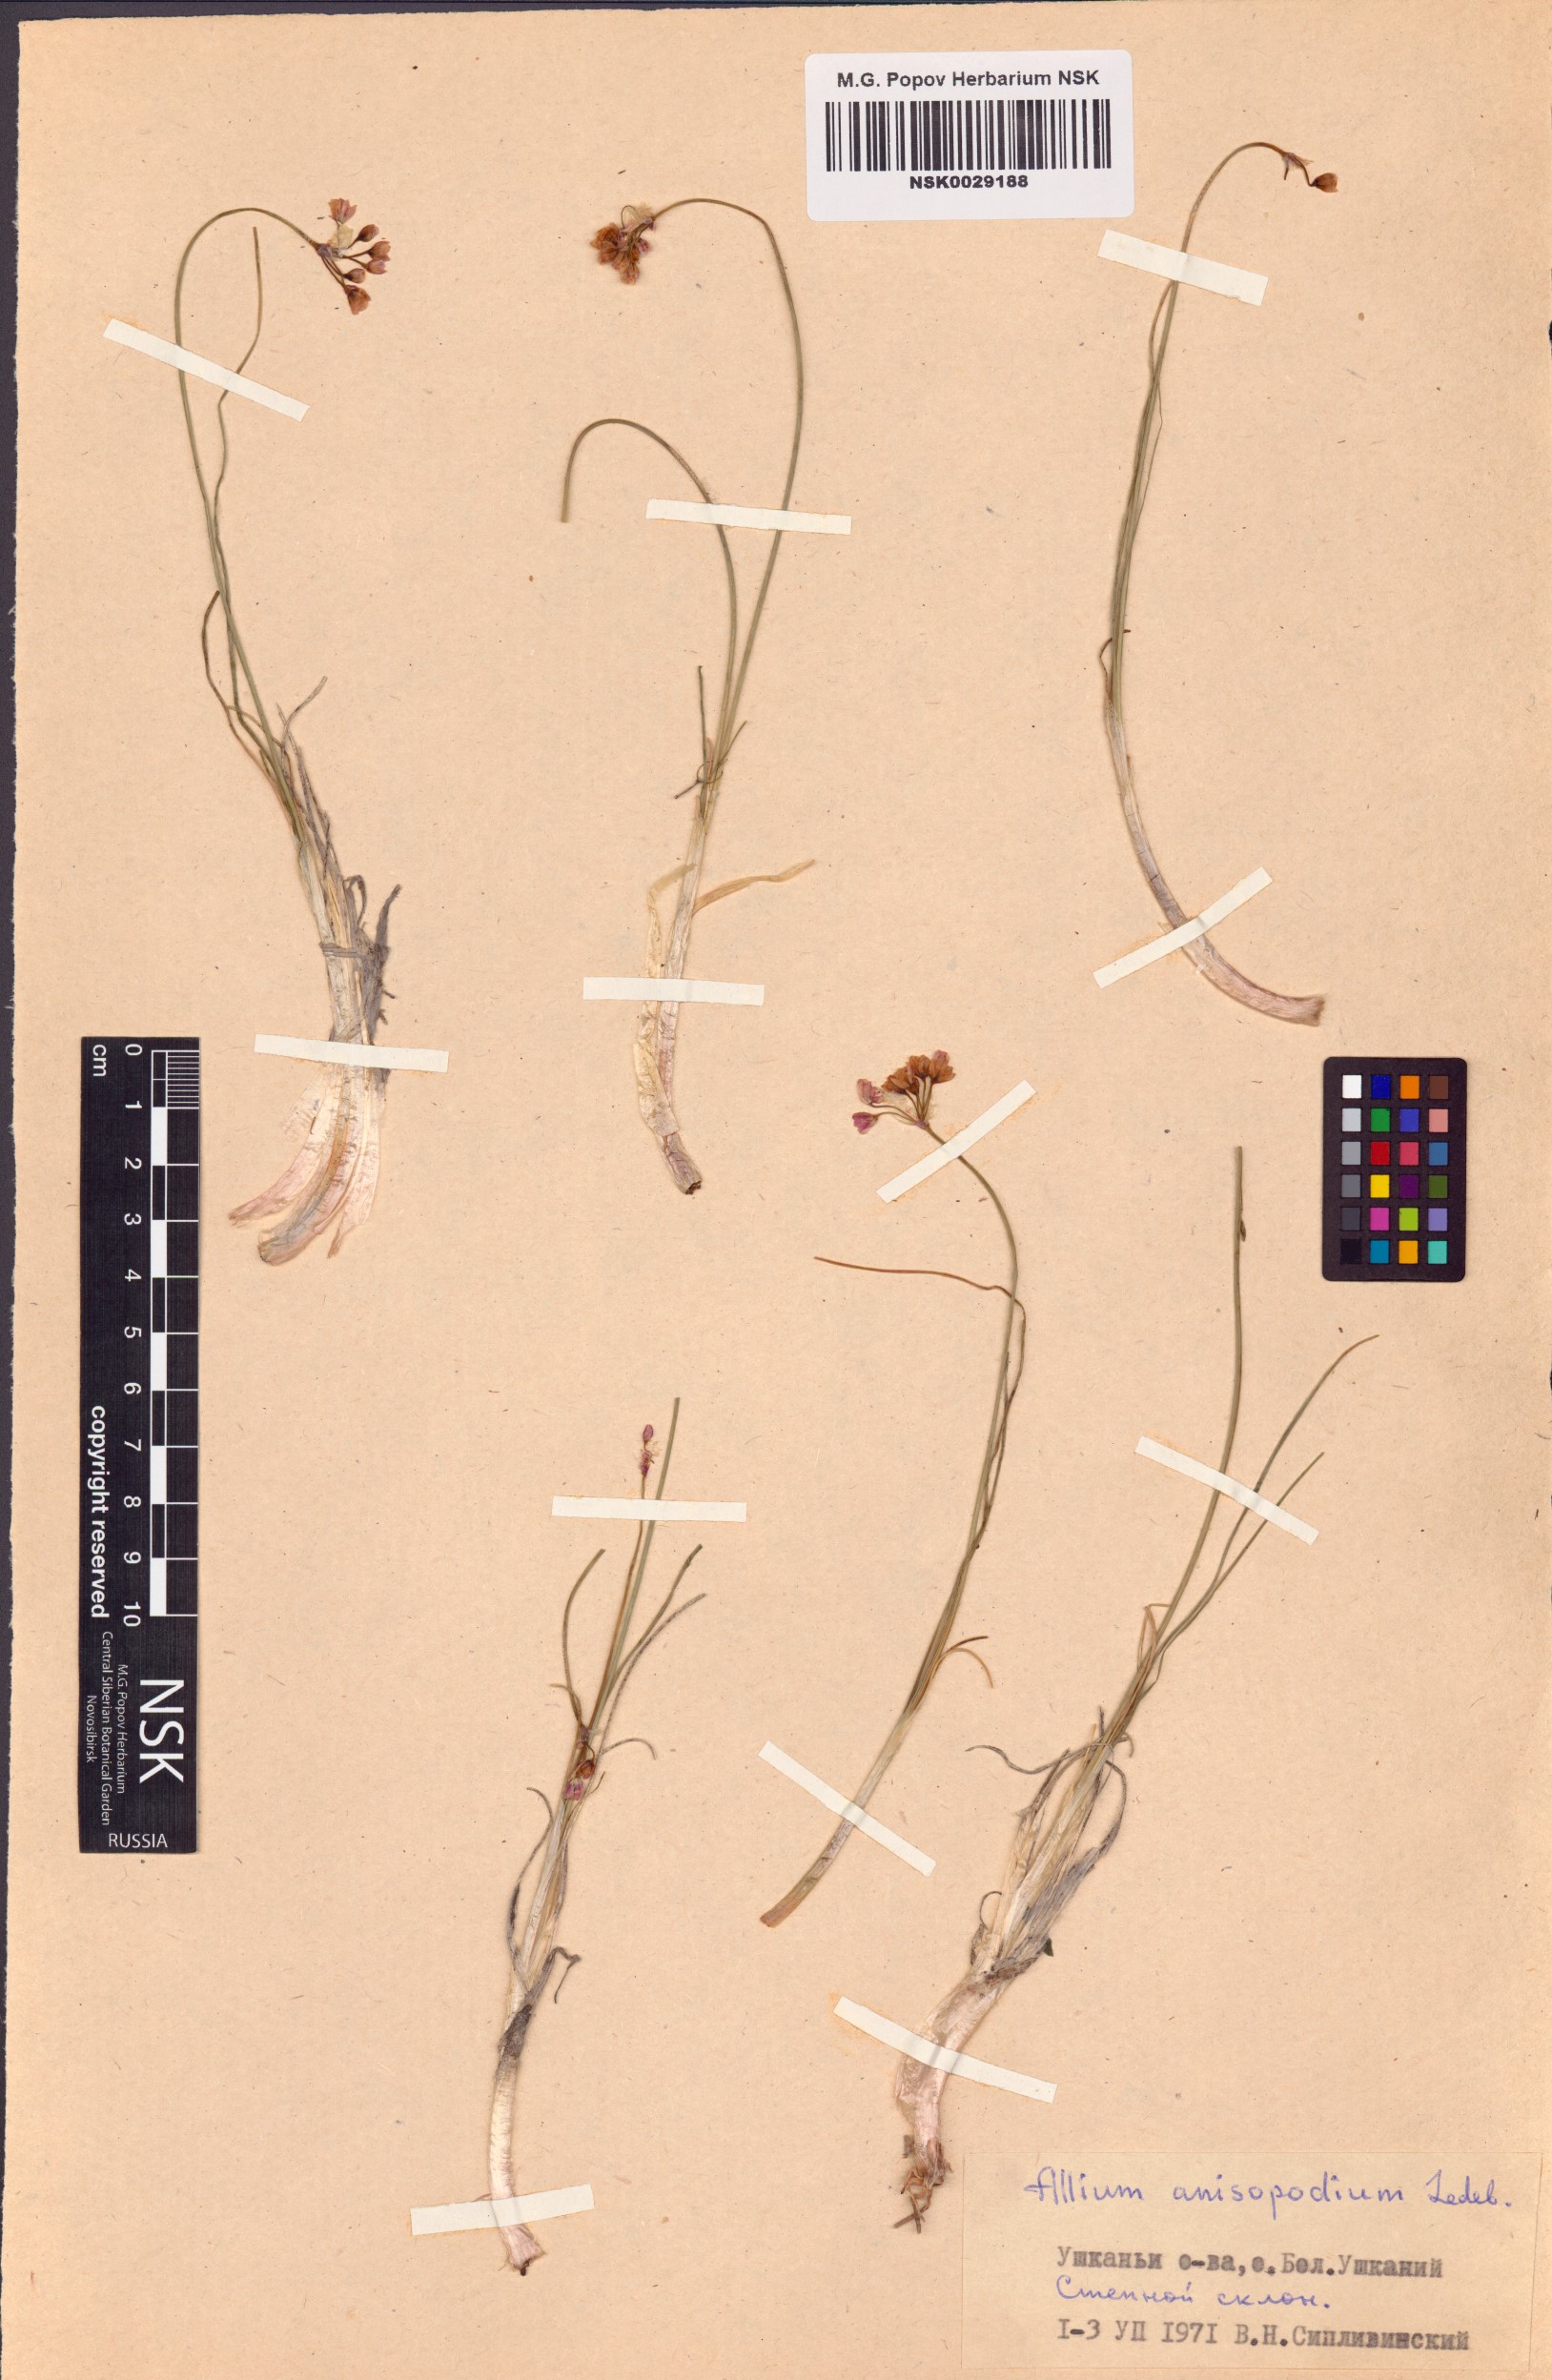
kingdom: Plantae
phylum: Tracheophyta
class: Liliopsida
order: Asparagales
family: Amaryllidaceae
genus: Allium
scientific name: Allium anisopodium
